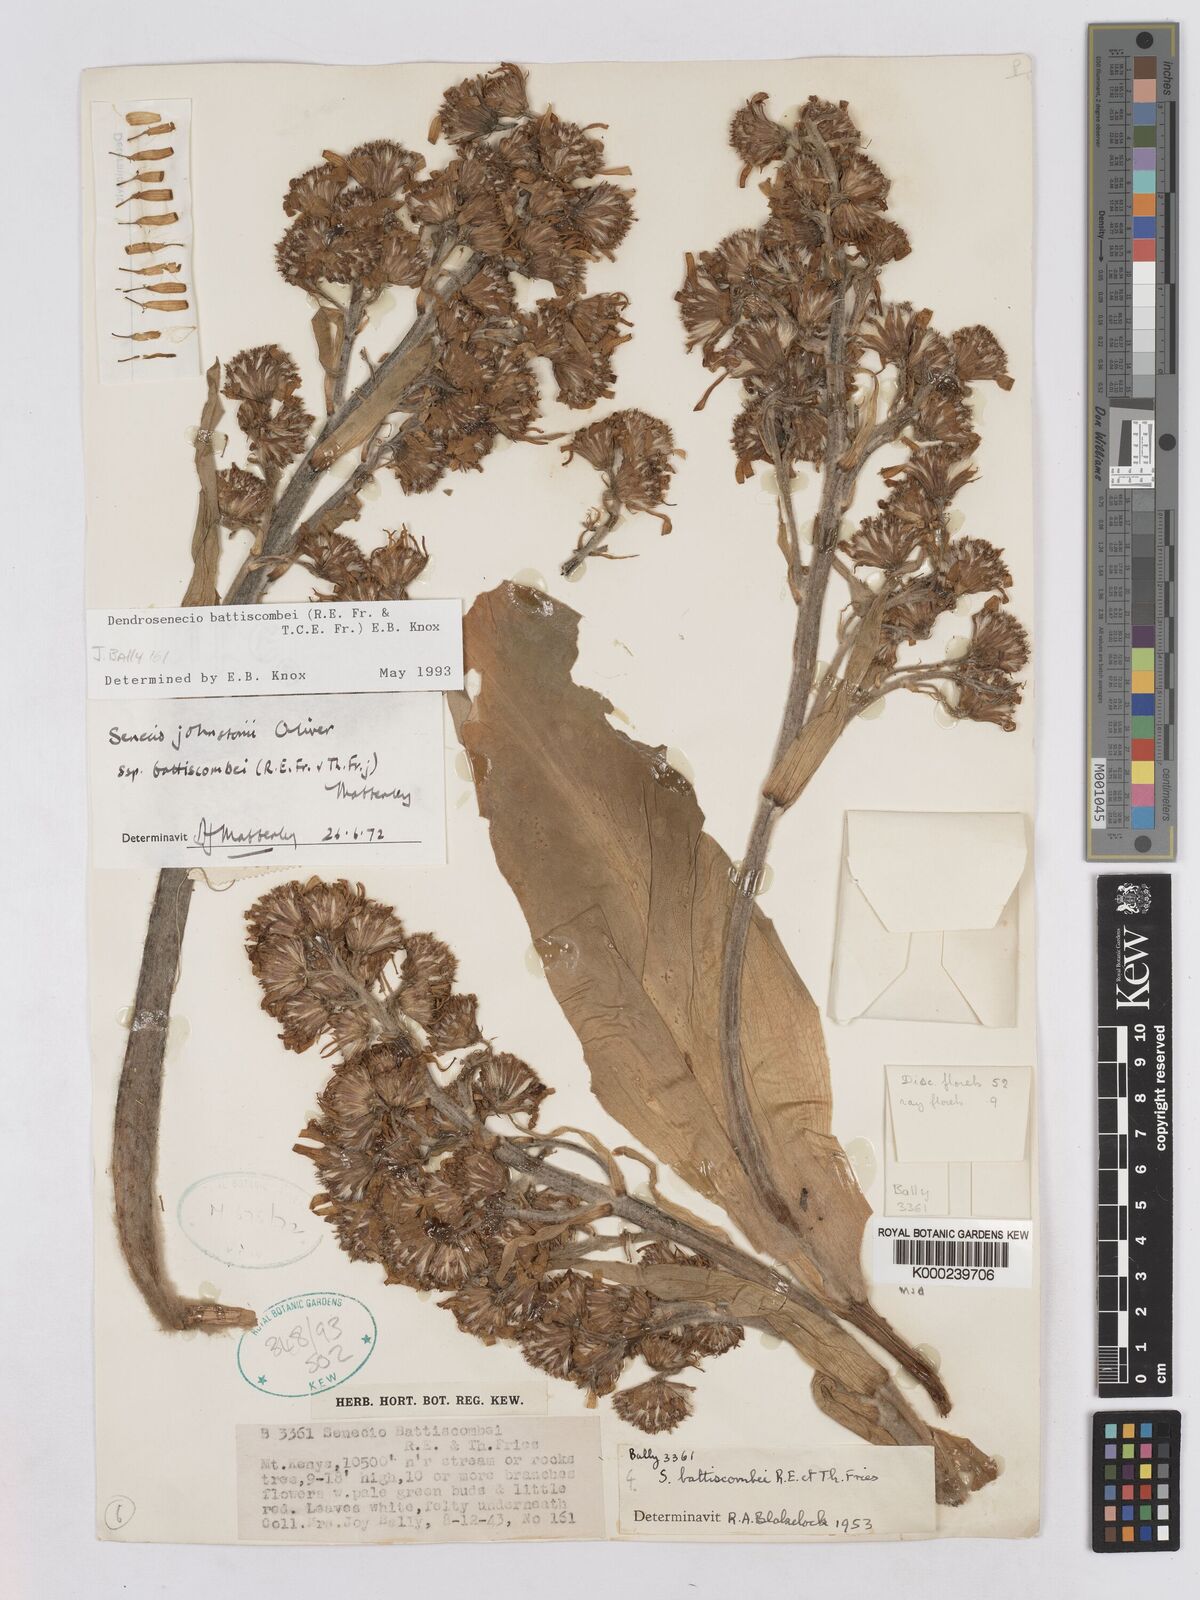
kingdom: Plantae
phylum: Tracheophyta
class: Magnoliopsida
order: Asterales
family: Asteraceae
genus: Dendrosenecio
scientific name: Dendrosenecio battiscombei
